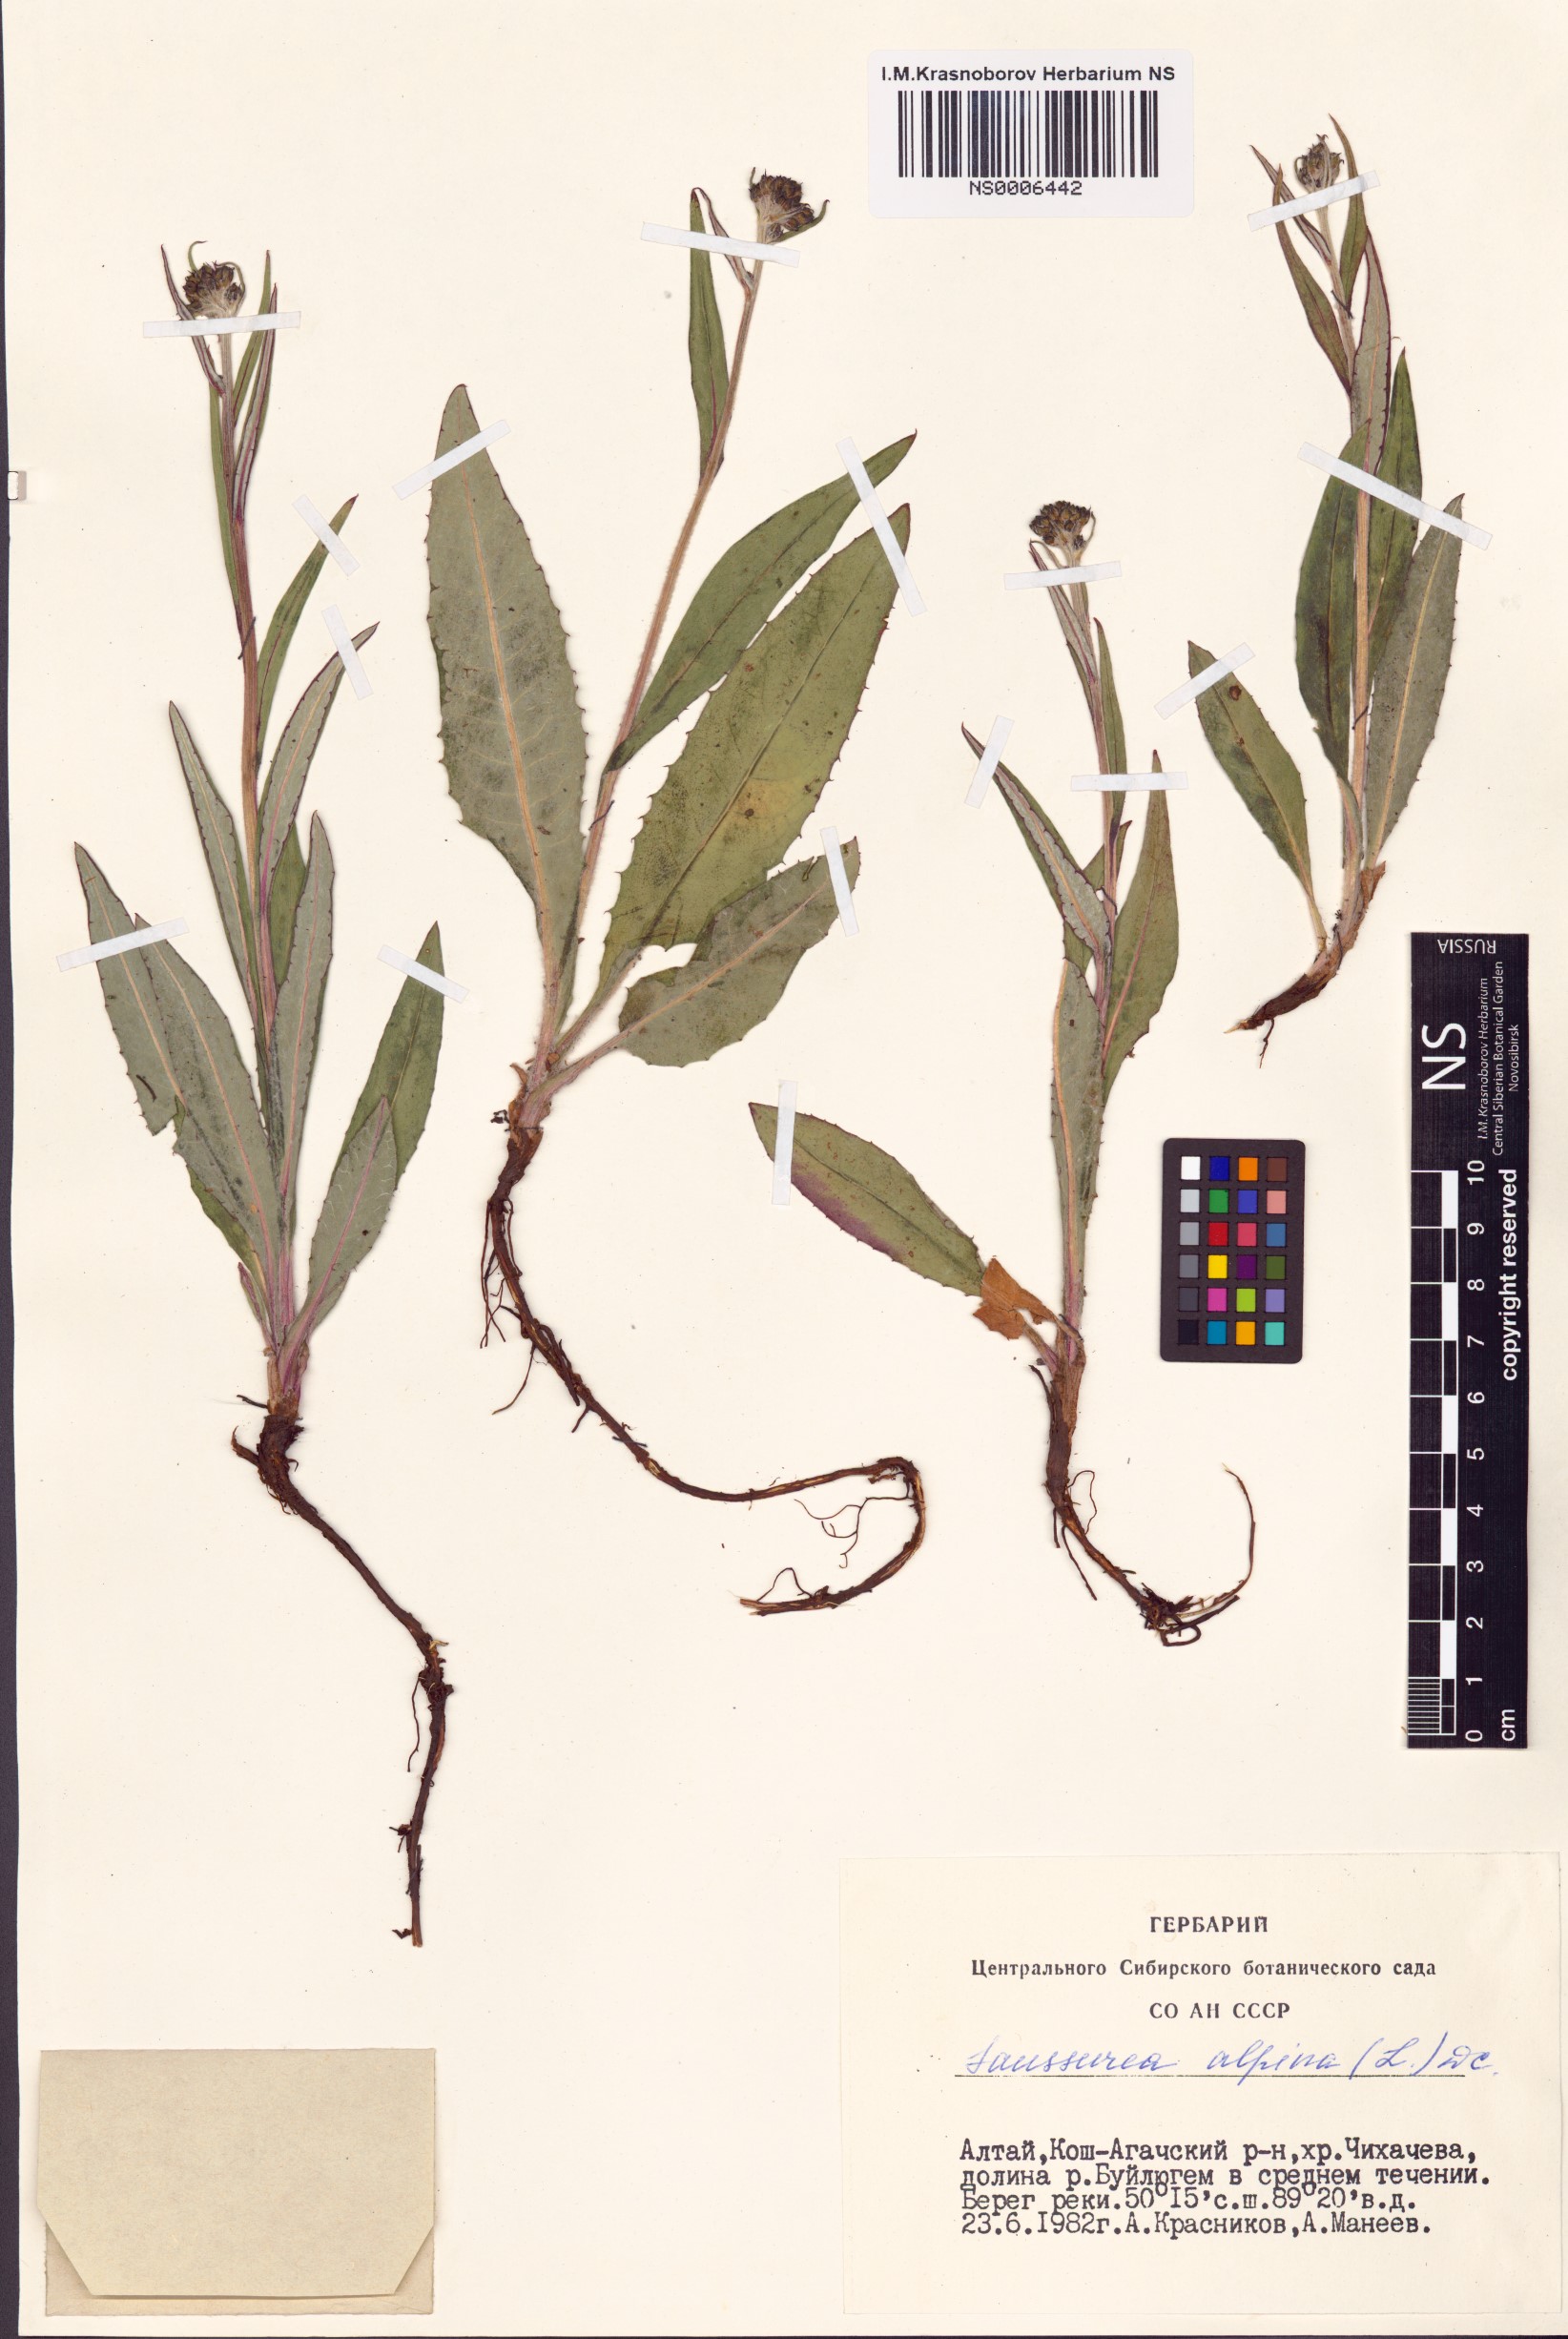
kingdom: Plantae
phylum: Tracheophyta
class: Magnoliopsida
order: Asterales
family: Asteraceae
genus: Saussurea
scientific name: Saussurea alpina
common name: Alpine saw-wort
